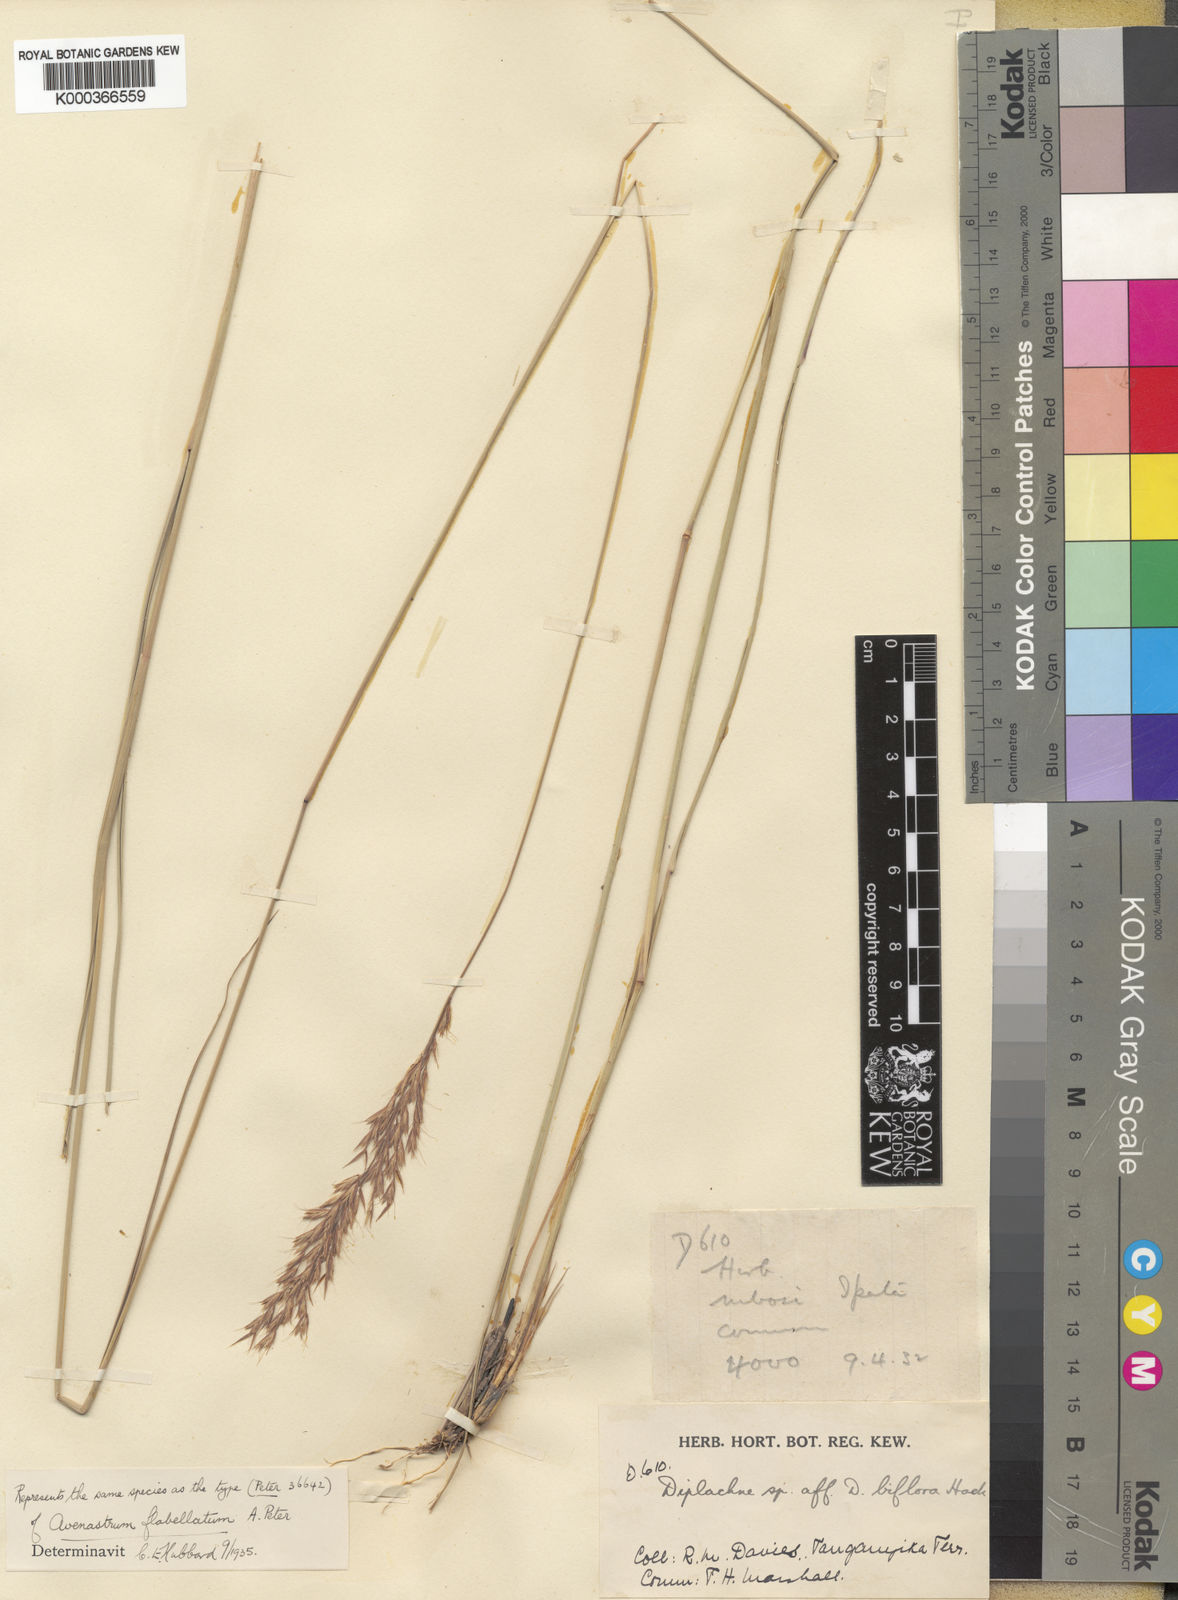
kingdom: Plantae
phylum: Tracheophyta
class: Liliopsida
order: Poales
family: Poaceae
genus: Bewsia
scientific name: Bewsia biflora
